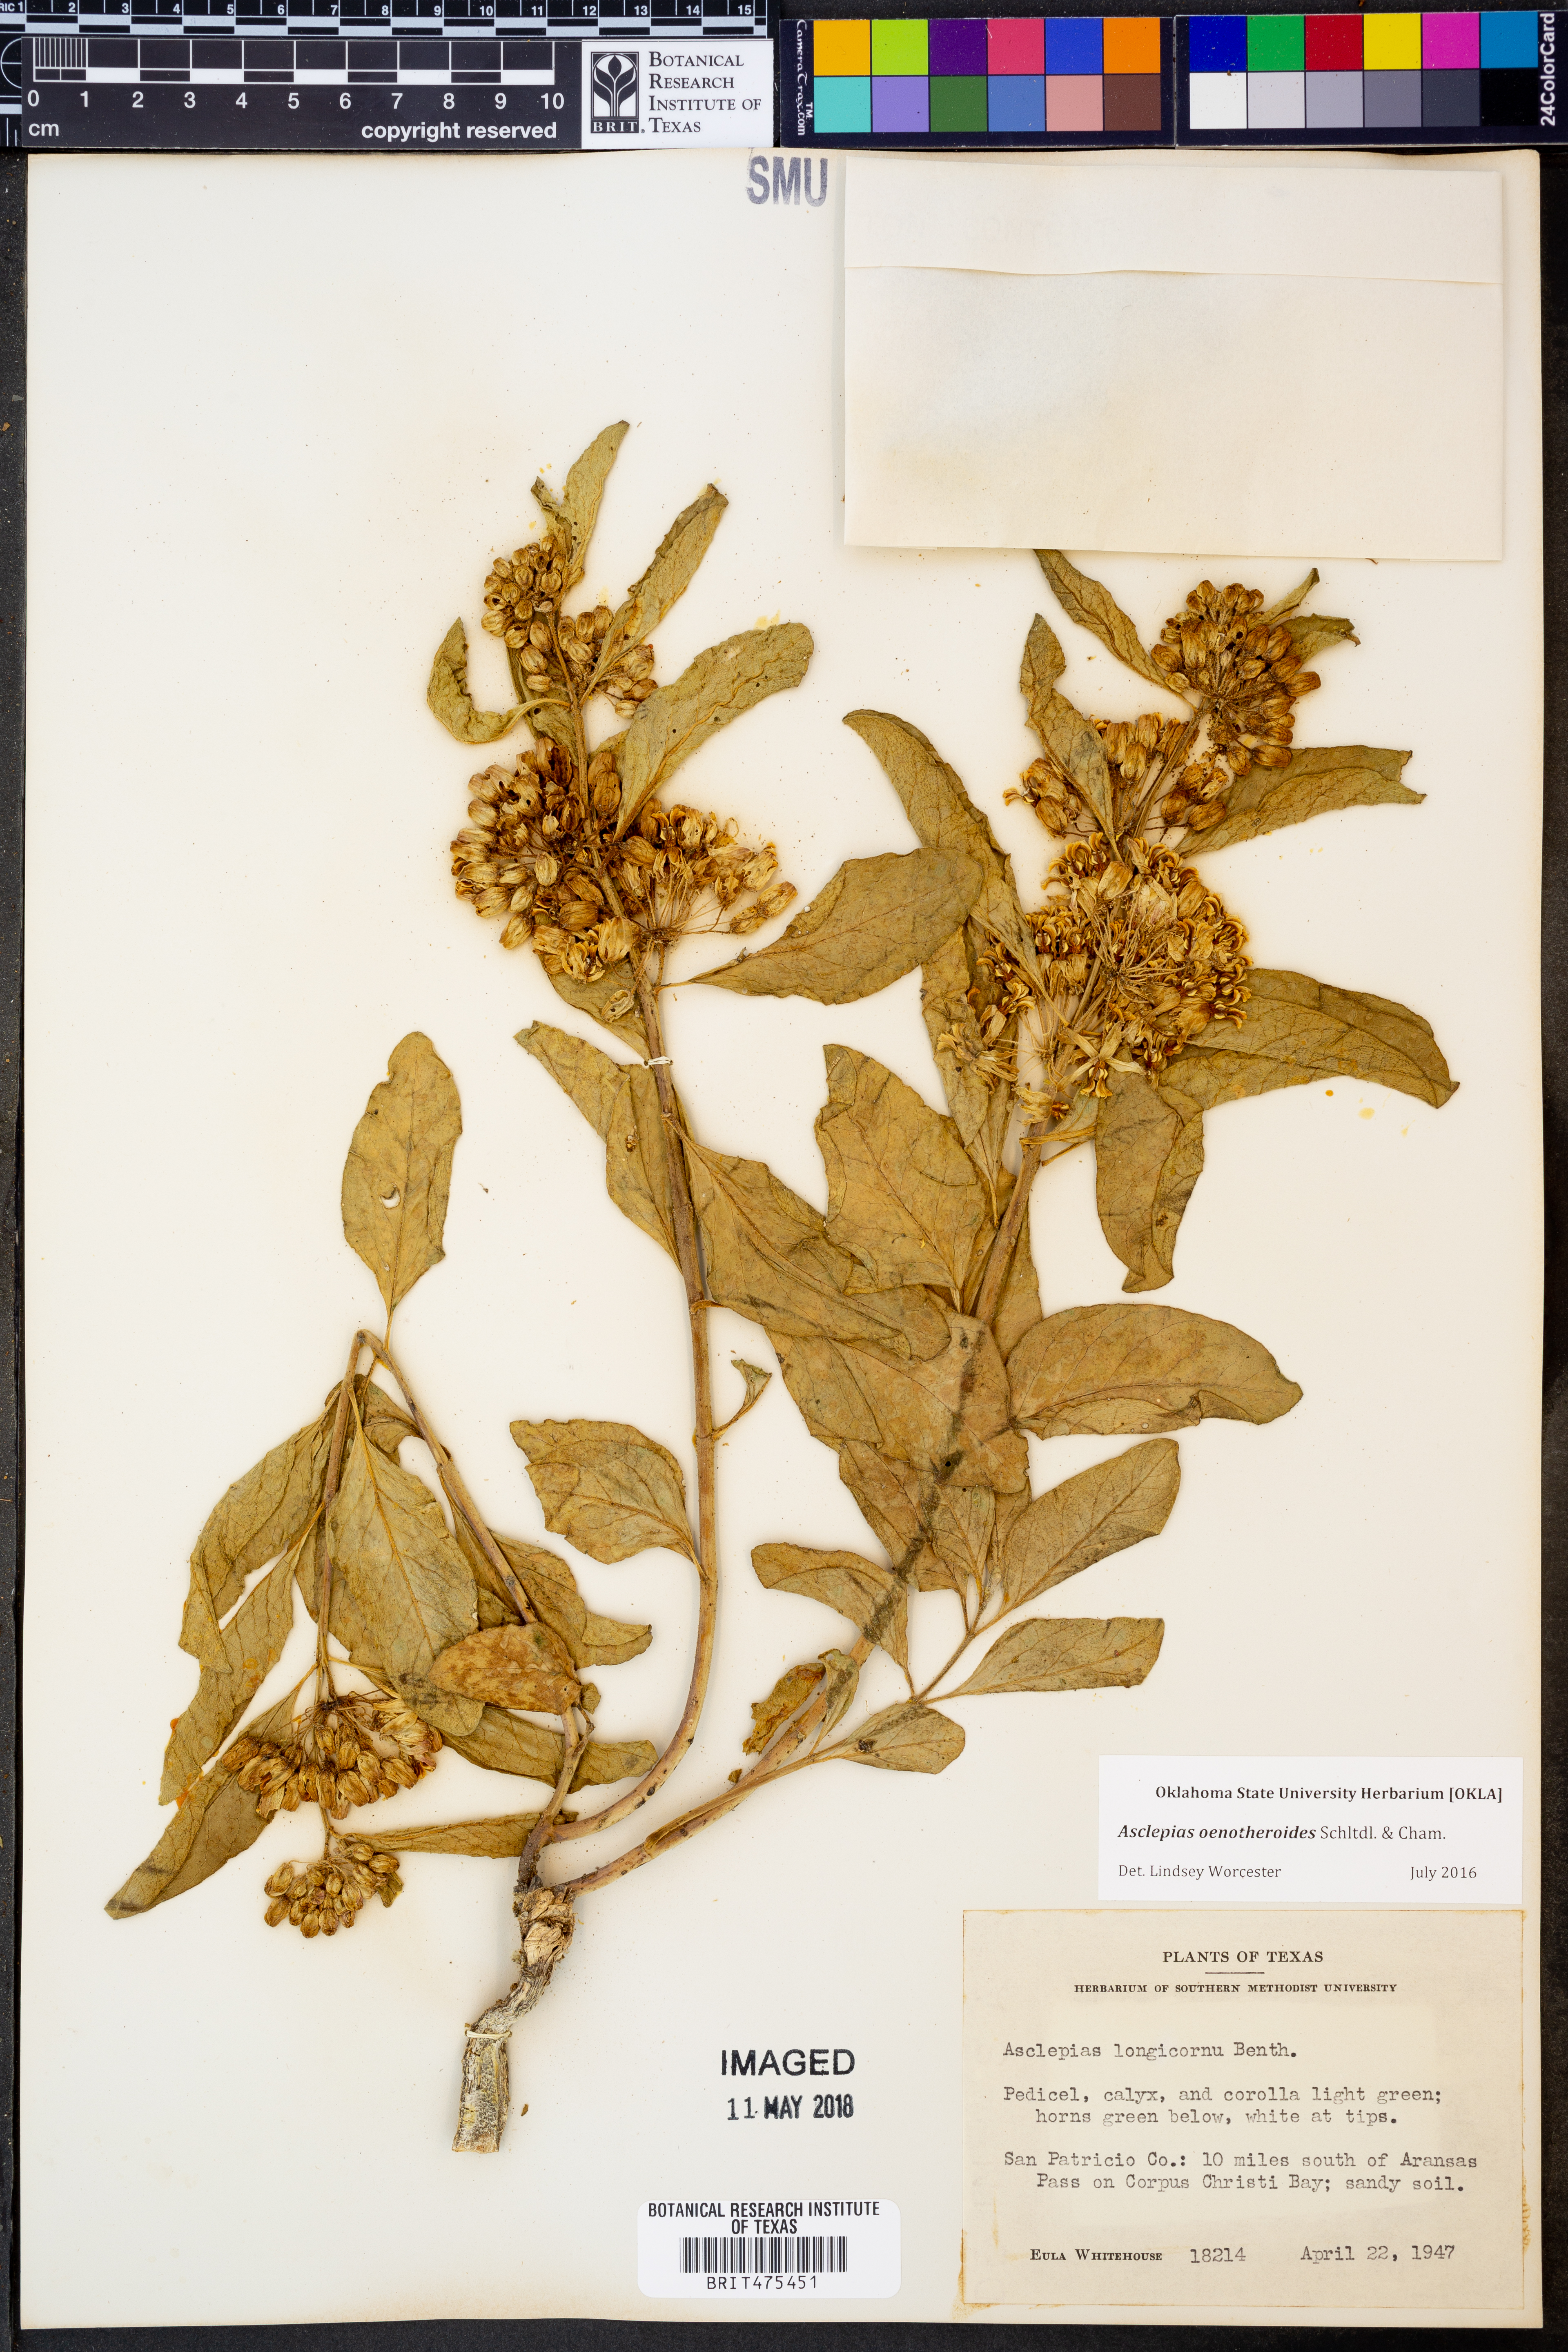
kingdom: Plantae
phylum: Tracheophyta
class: Magnoliopsida
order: Gentianales
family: Apocynaceae
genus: Asclepias
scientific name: Asclepias oenotheroides
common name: Zizotes milkweed
